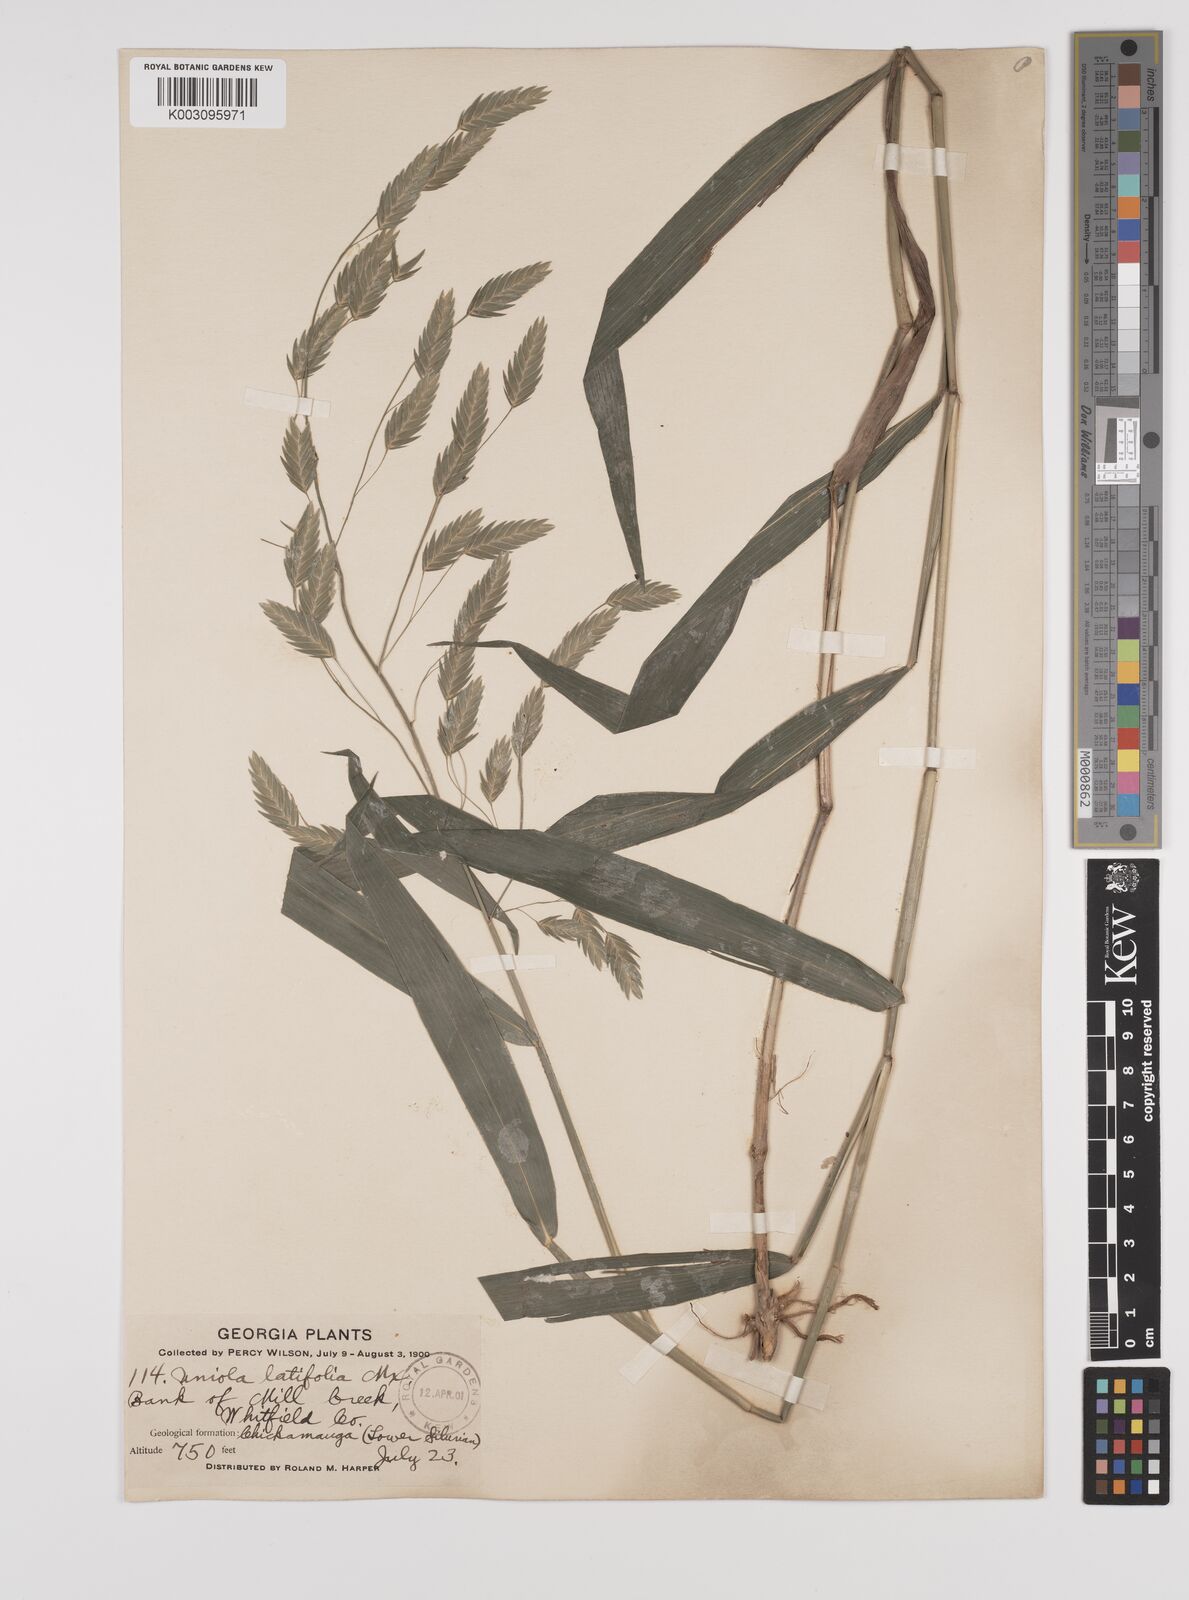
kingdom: Plantae
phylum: Tracheophyta
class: Liliopsida
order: Poales
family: Poaceae
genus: Chasmanthium
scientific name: Chasmanthium latifolium
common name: Broad-leaved chasmanthium
